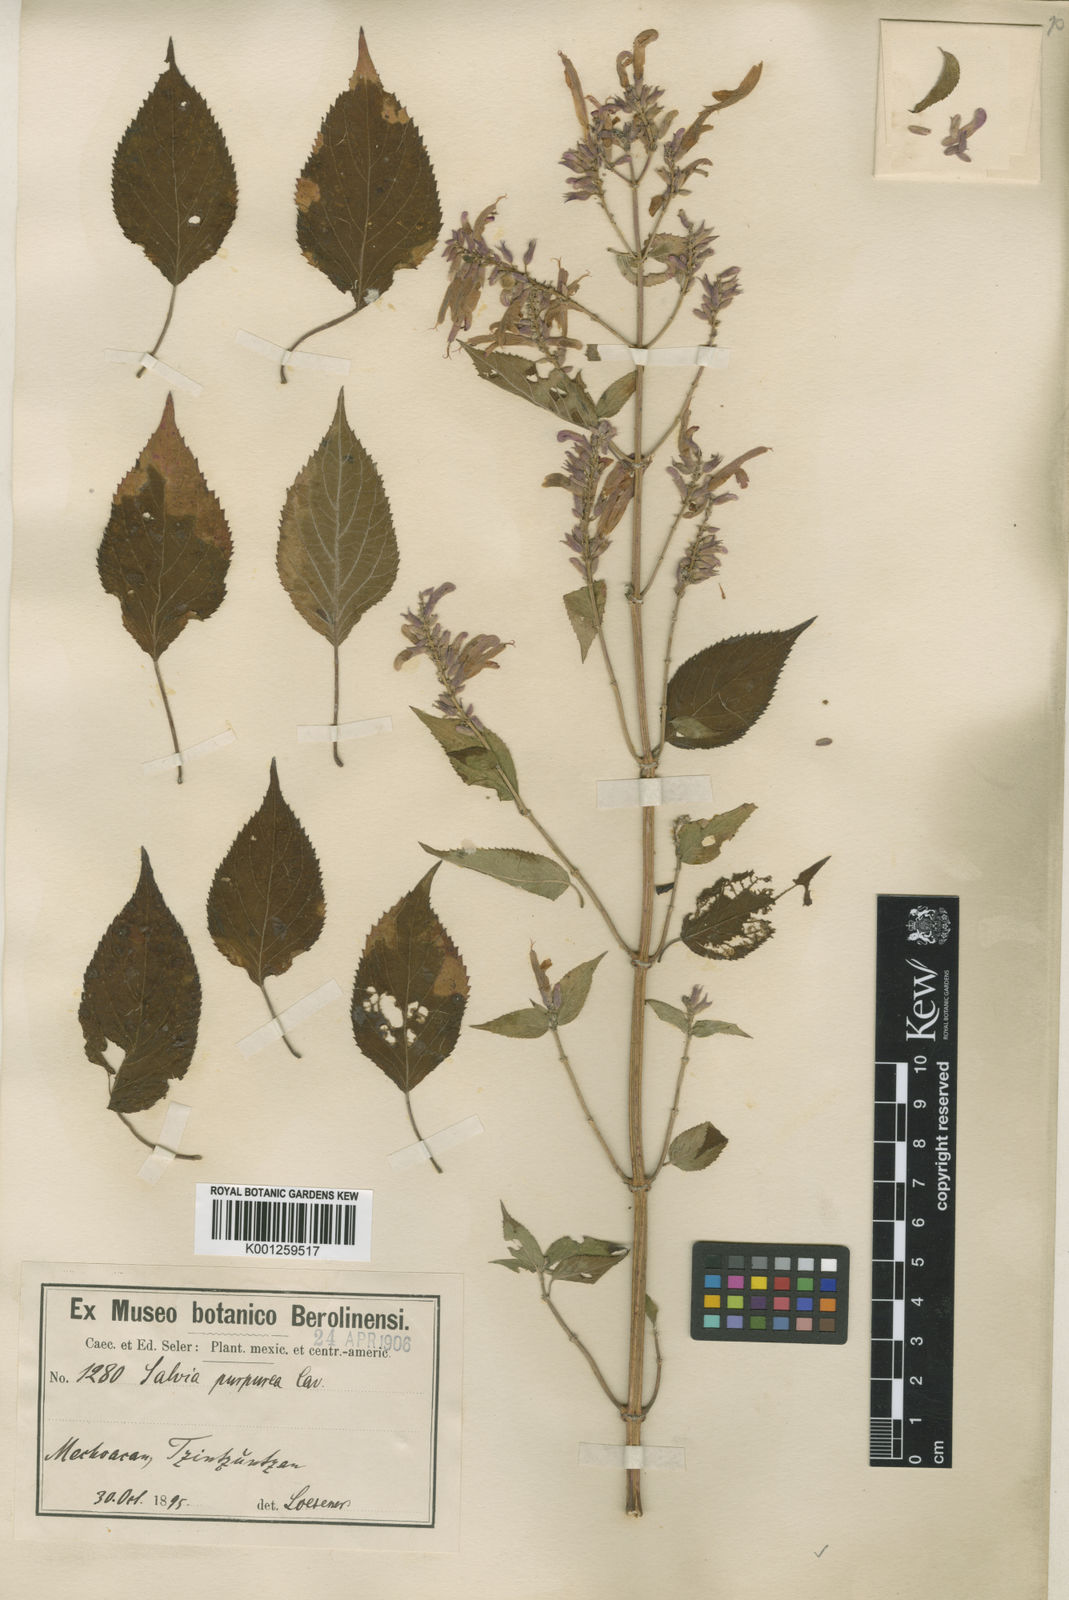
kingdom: Plantae
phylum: Tracheophyta
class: Magnoliopsida
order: Lamiales
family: Lamiaceae
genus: Salvia
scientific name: Salvia
